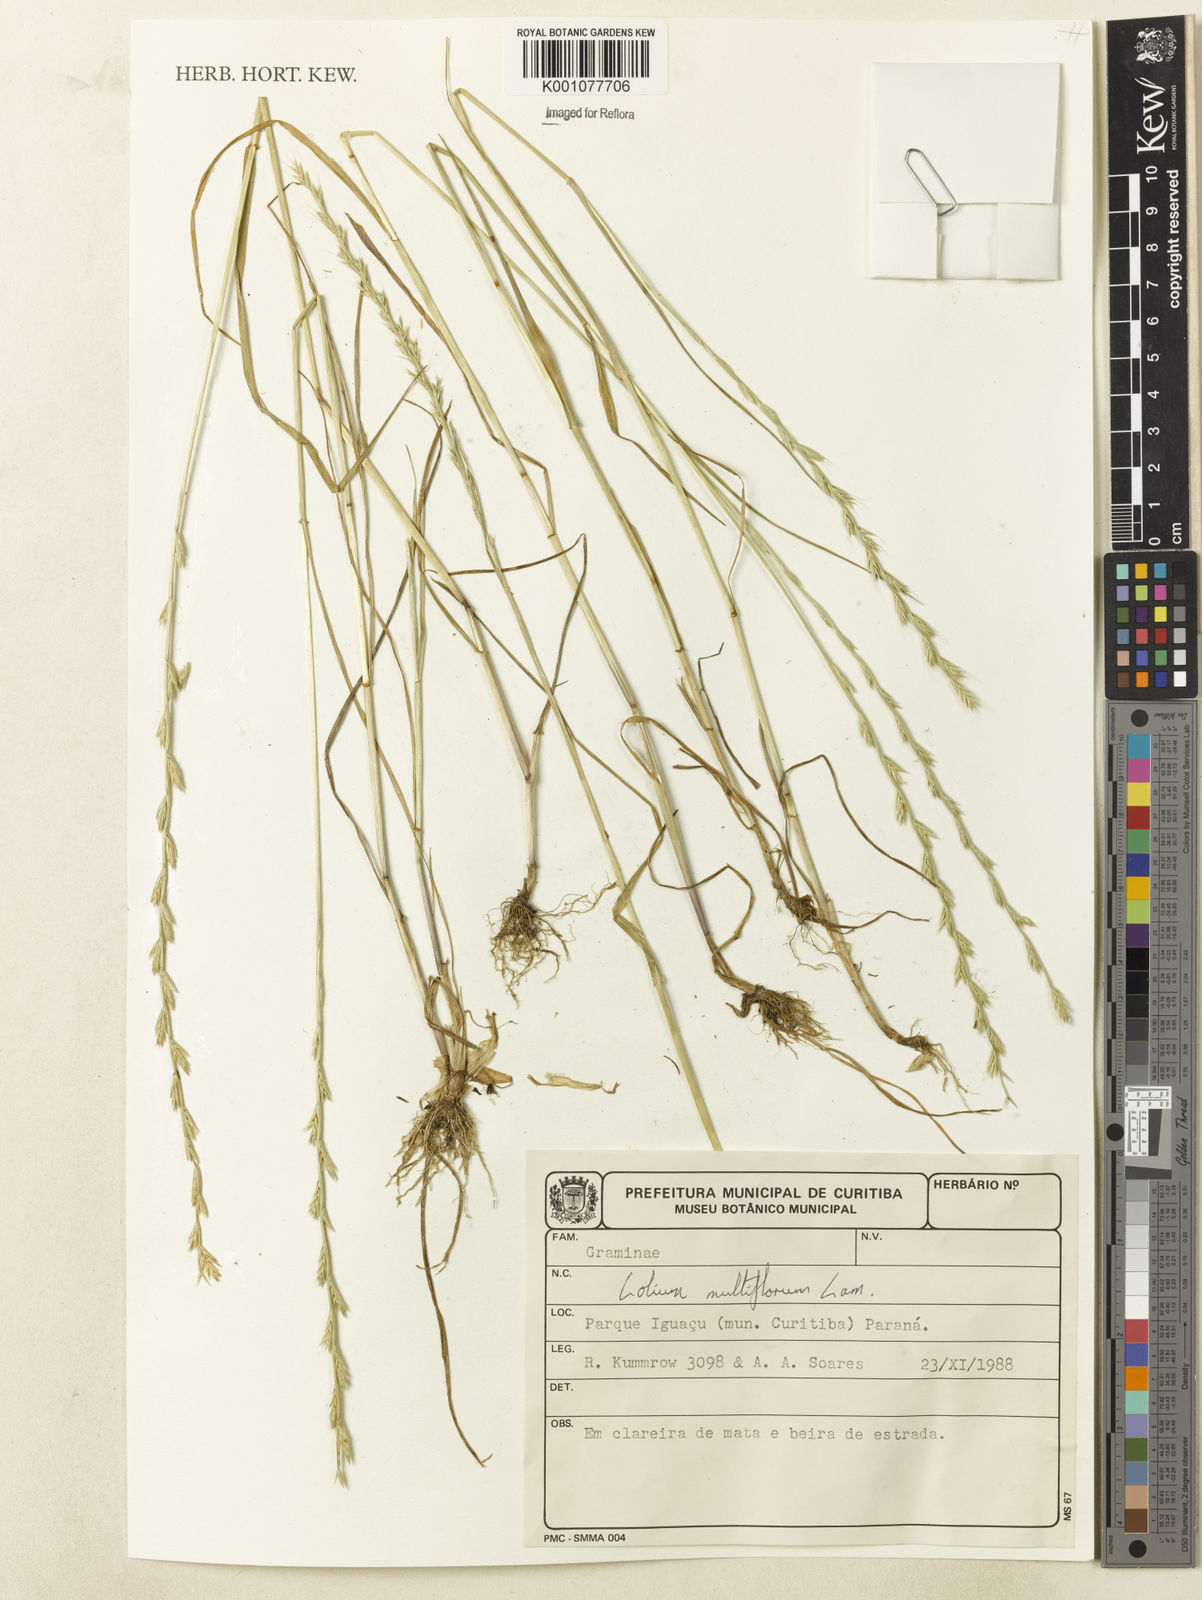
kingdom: Plantae
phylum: Tracheophyta
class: Liliopsida
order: Poales
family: Poaceae
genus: Lolium
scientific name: Lolium multiflorum
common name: Annual ryegrass
